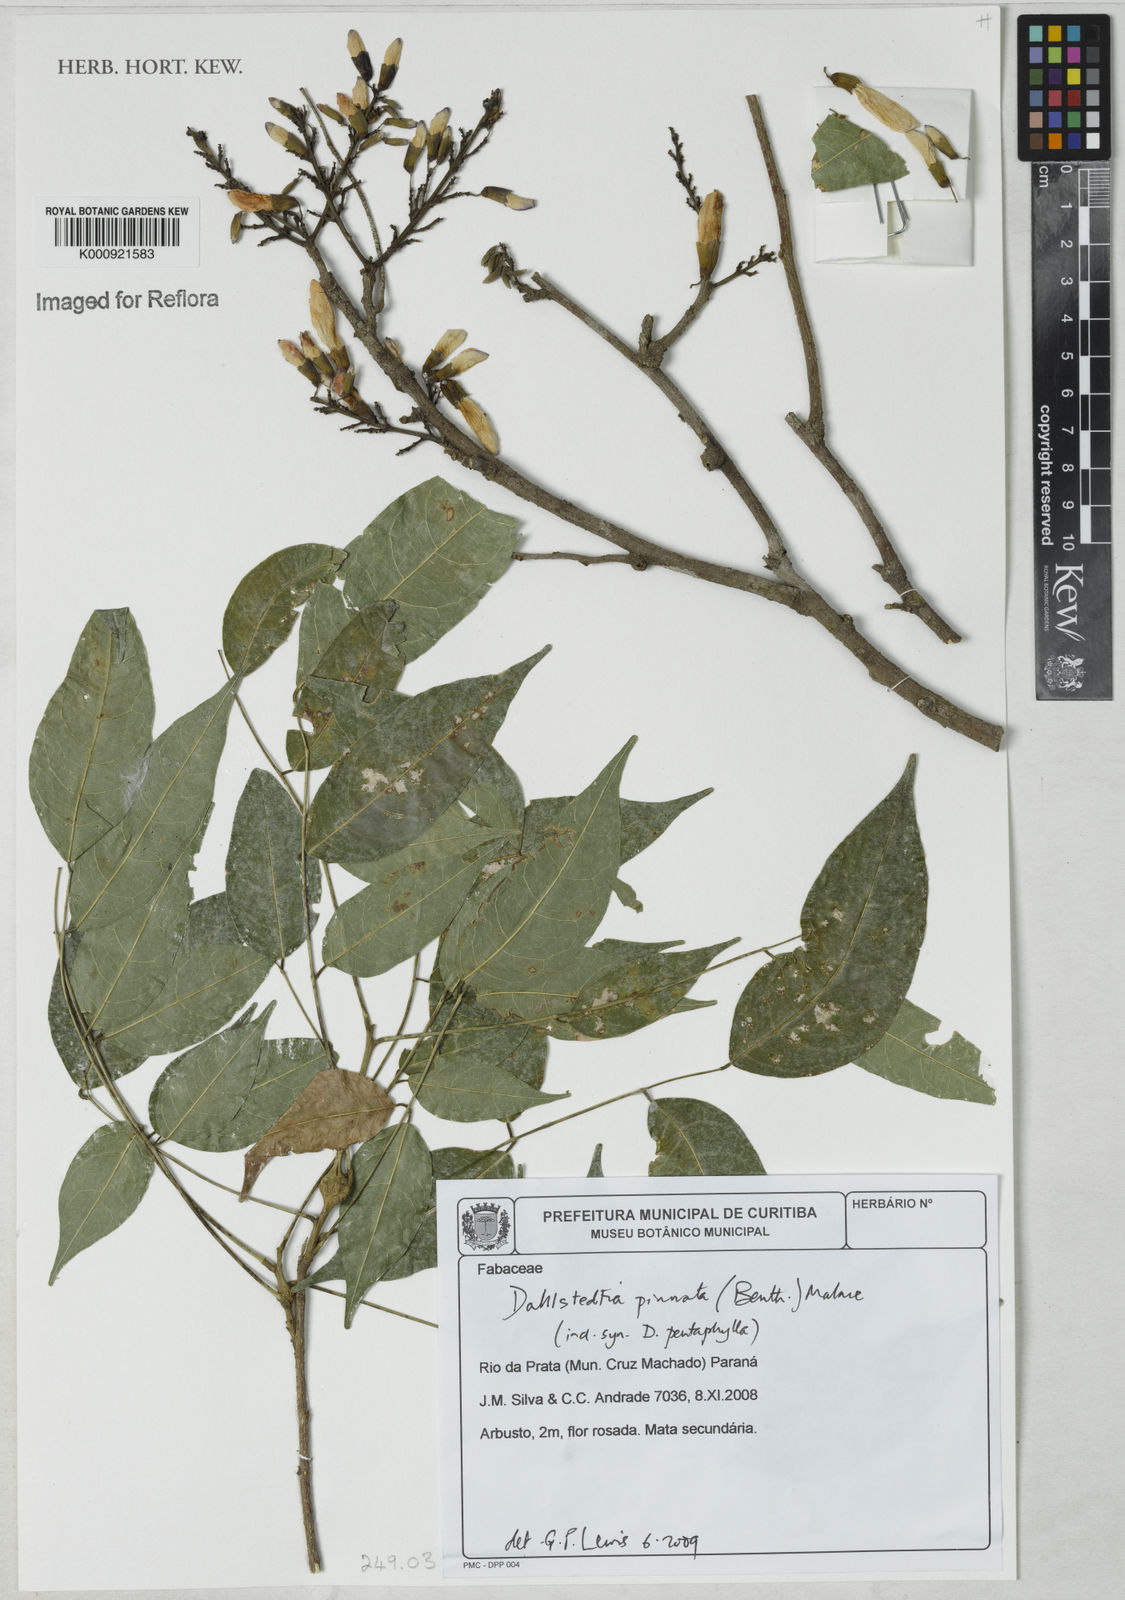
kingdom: Plantae
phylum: Tracheophyta
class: Magnoliopsida
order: Fabales
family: Fabaceae
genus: Dahlstedtia
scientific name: Dahlstedtia pinnata
